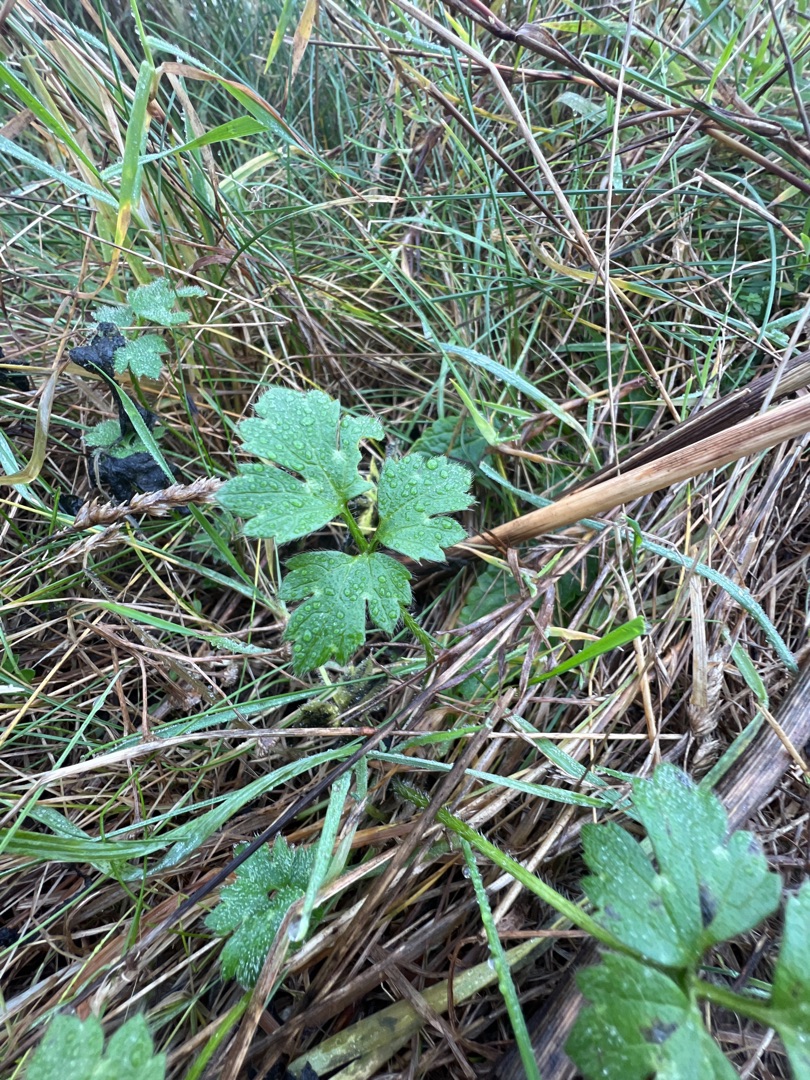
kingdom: Plantae
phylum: Tracheophyta
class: Magnoliopsida
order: Ranunculales
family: Ranunculaceae
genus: Ranunculus
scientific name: Ranunculus repens
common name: Lav ranunkel
